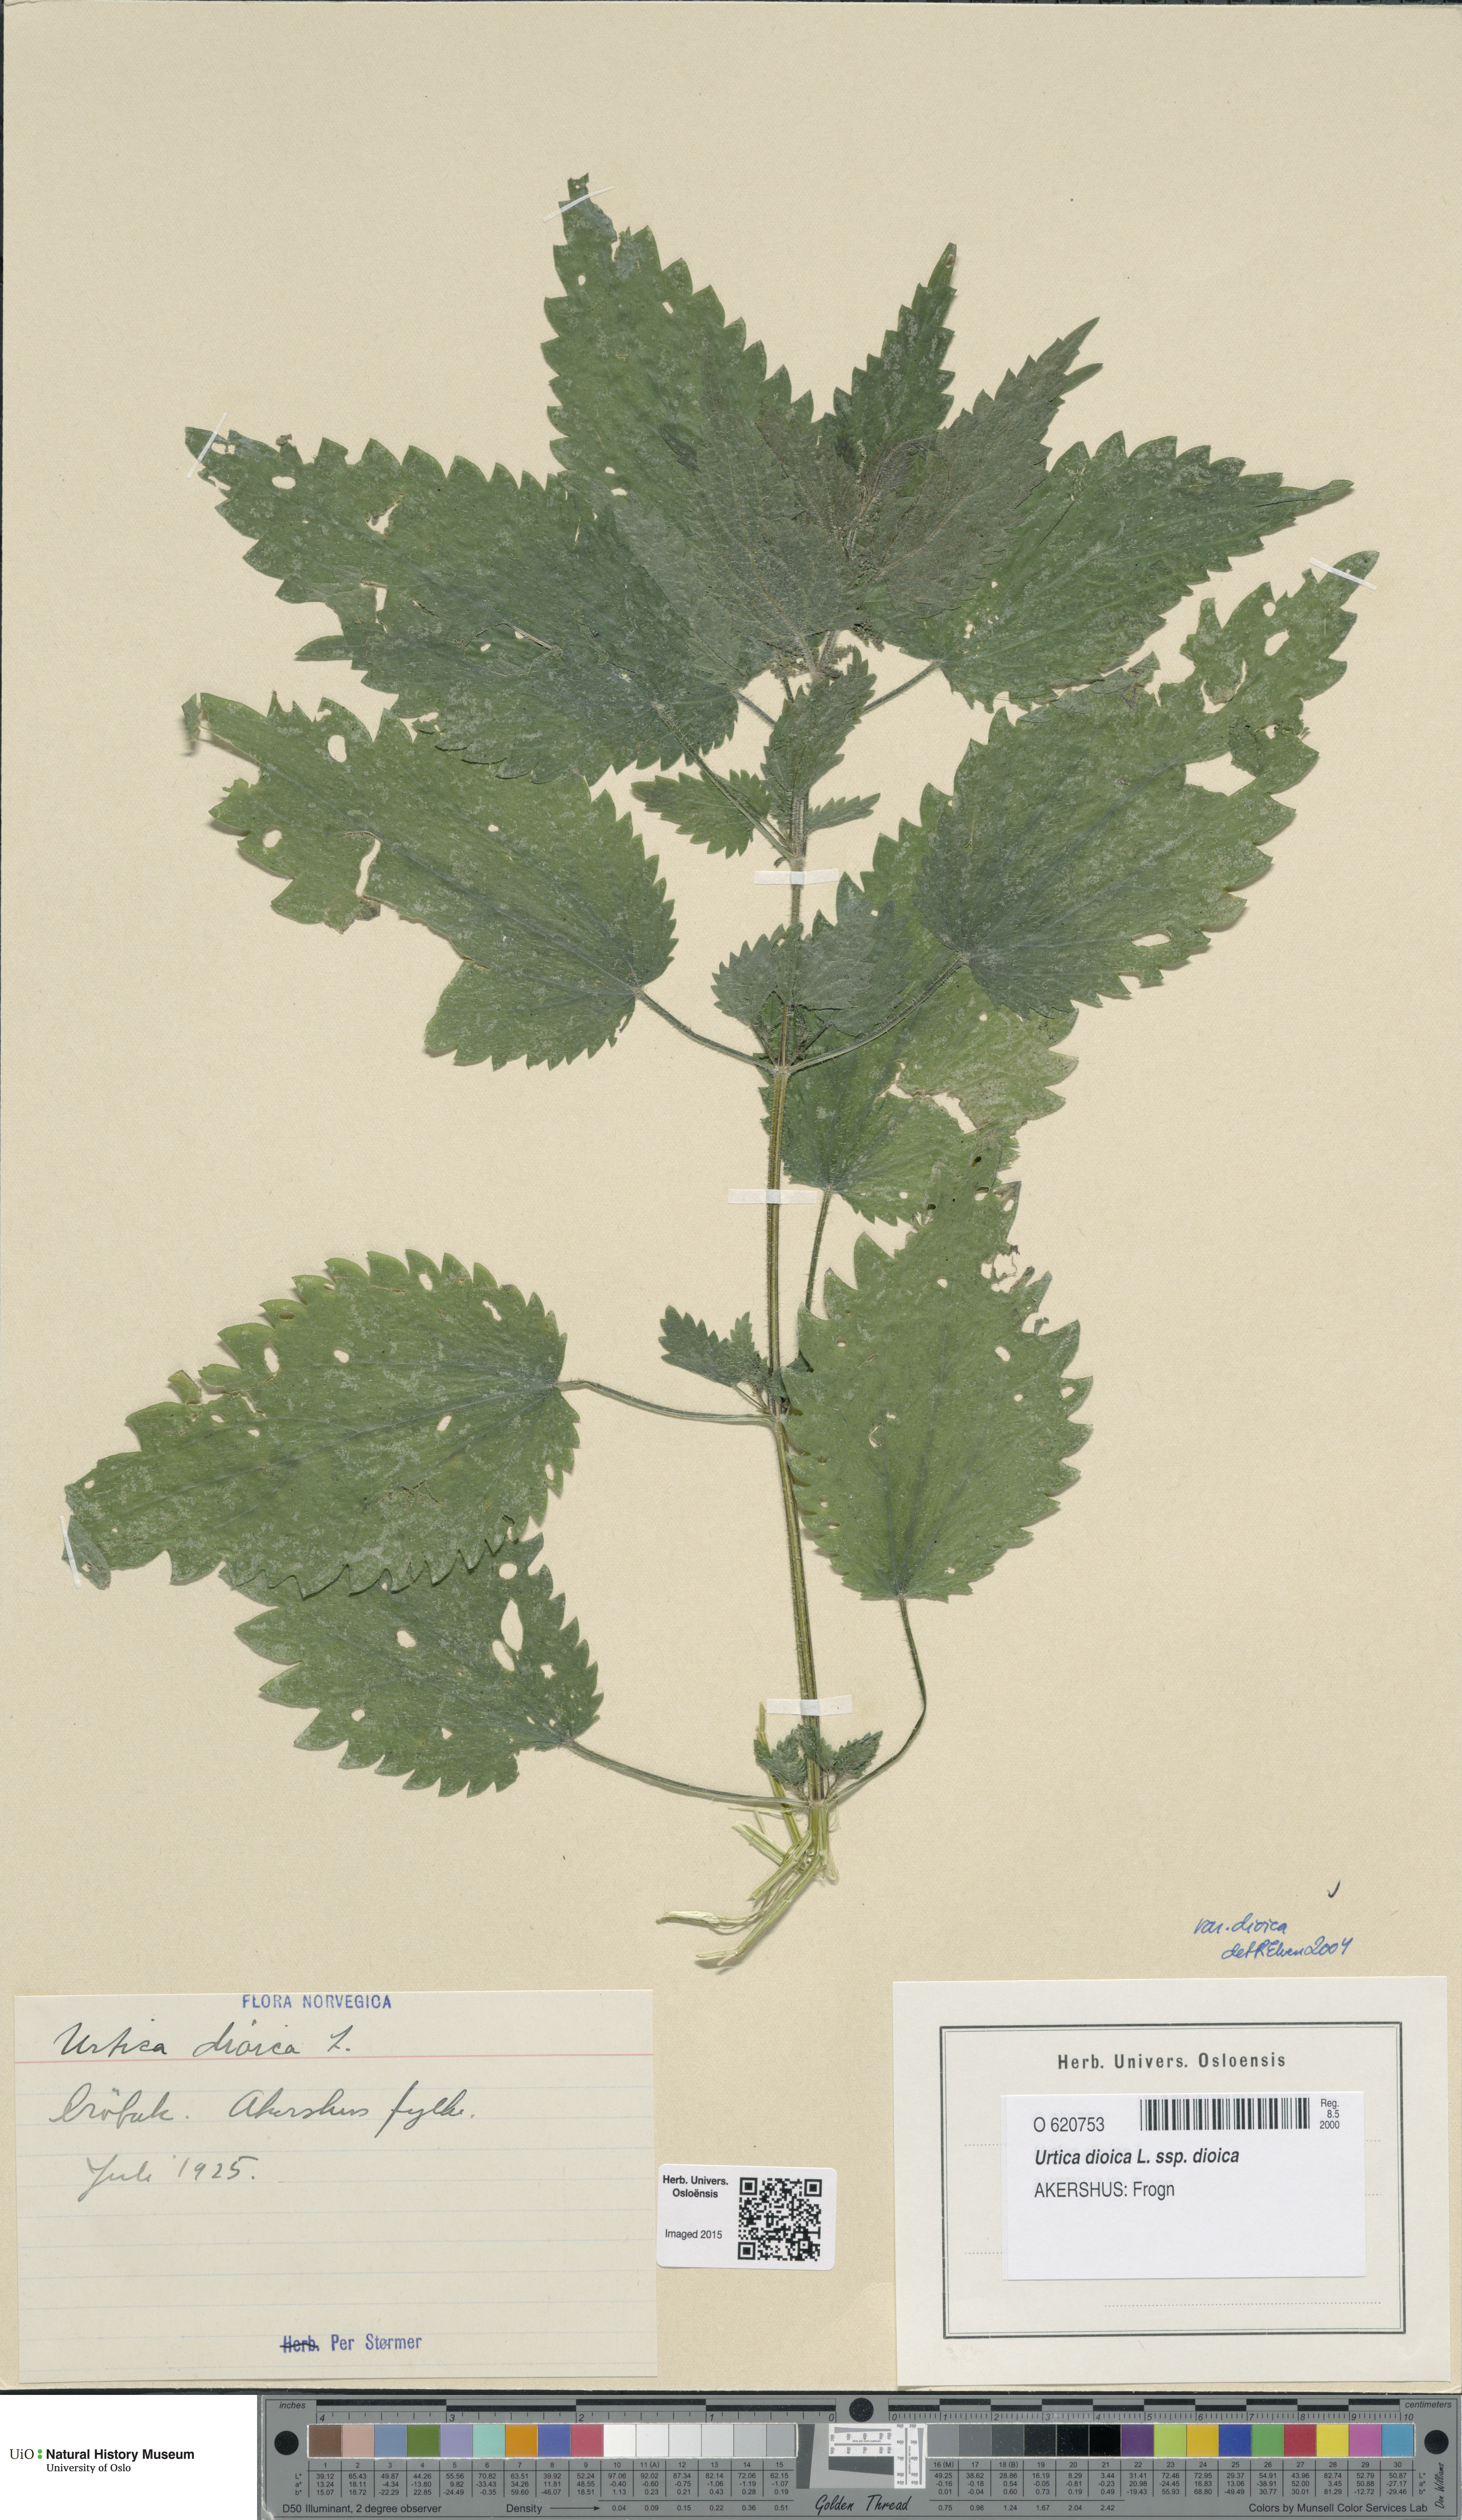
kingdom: Plantae
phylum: Tracheophyta
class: Magnoliopsida
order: Rosales
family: Urticaceae
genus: Urtica
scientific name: Urtica dioica
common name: Common nettle
